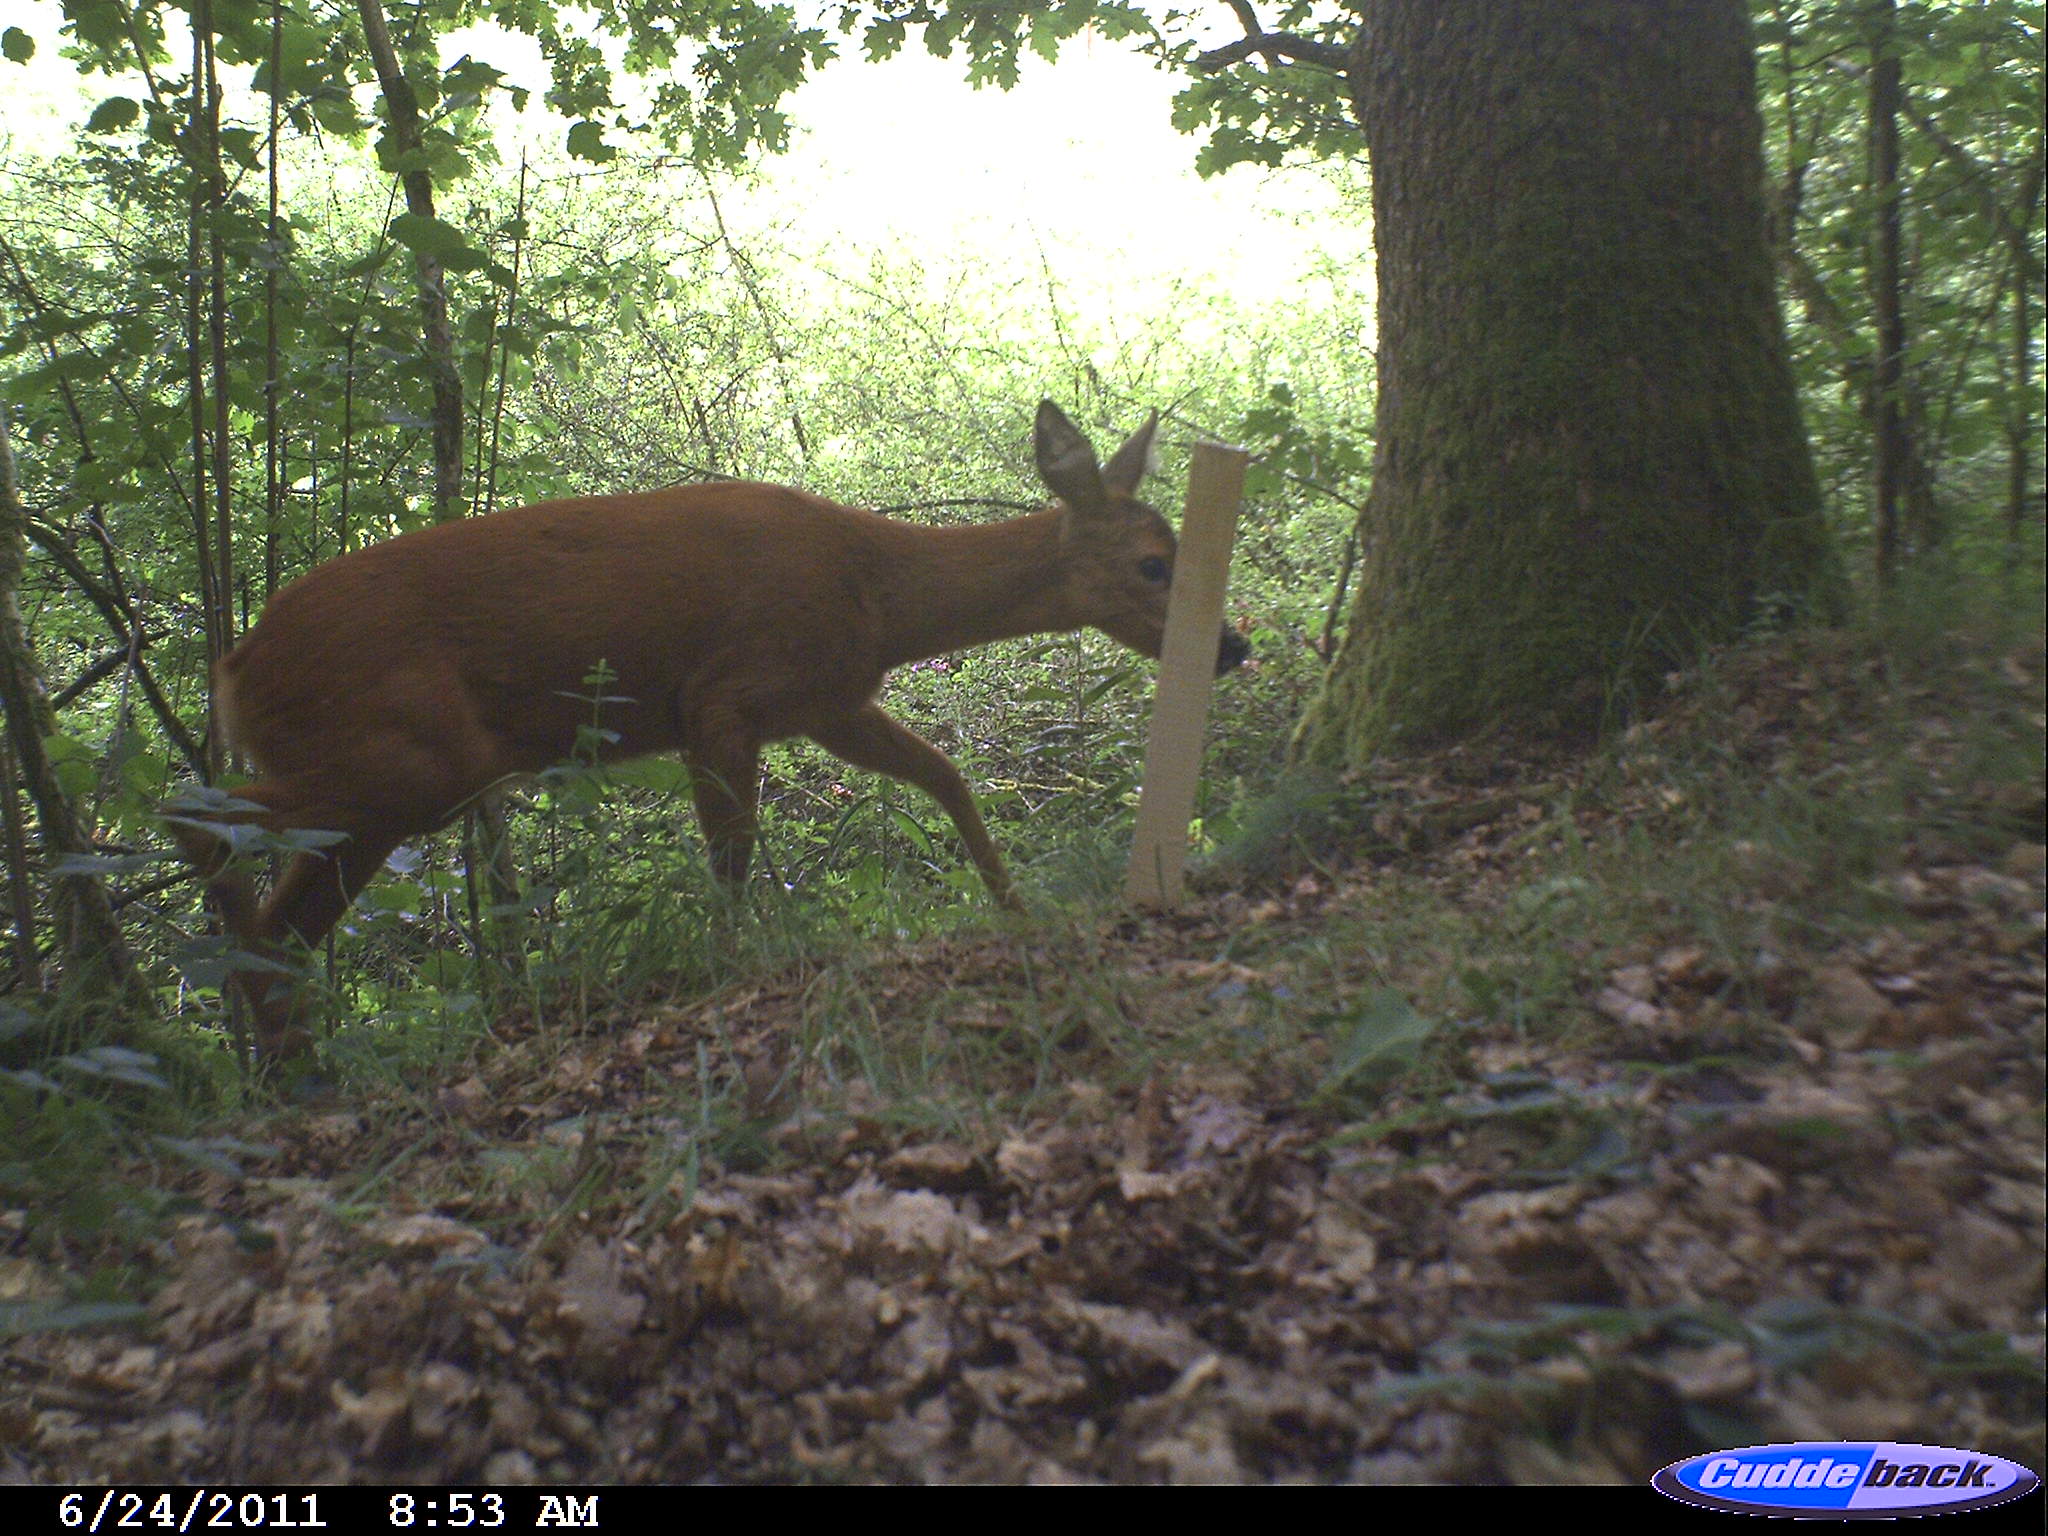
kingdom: Animalia
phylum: Chordata
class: Mammalia
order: Artiodactyla
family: Cervidae
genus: Capreolus
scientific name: Capreolus capreolus
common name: Western roe deer
